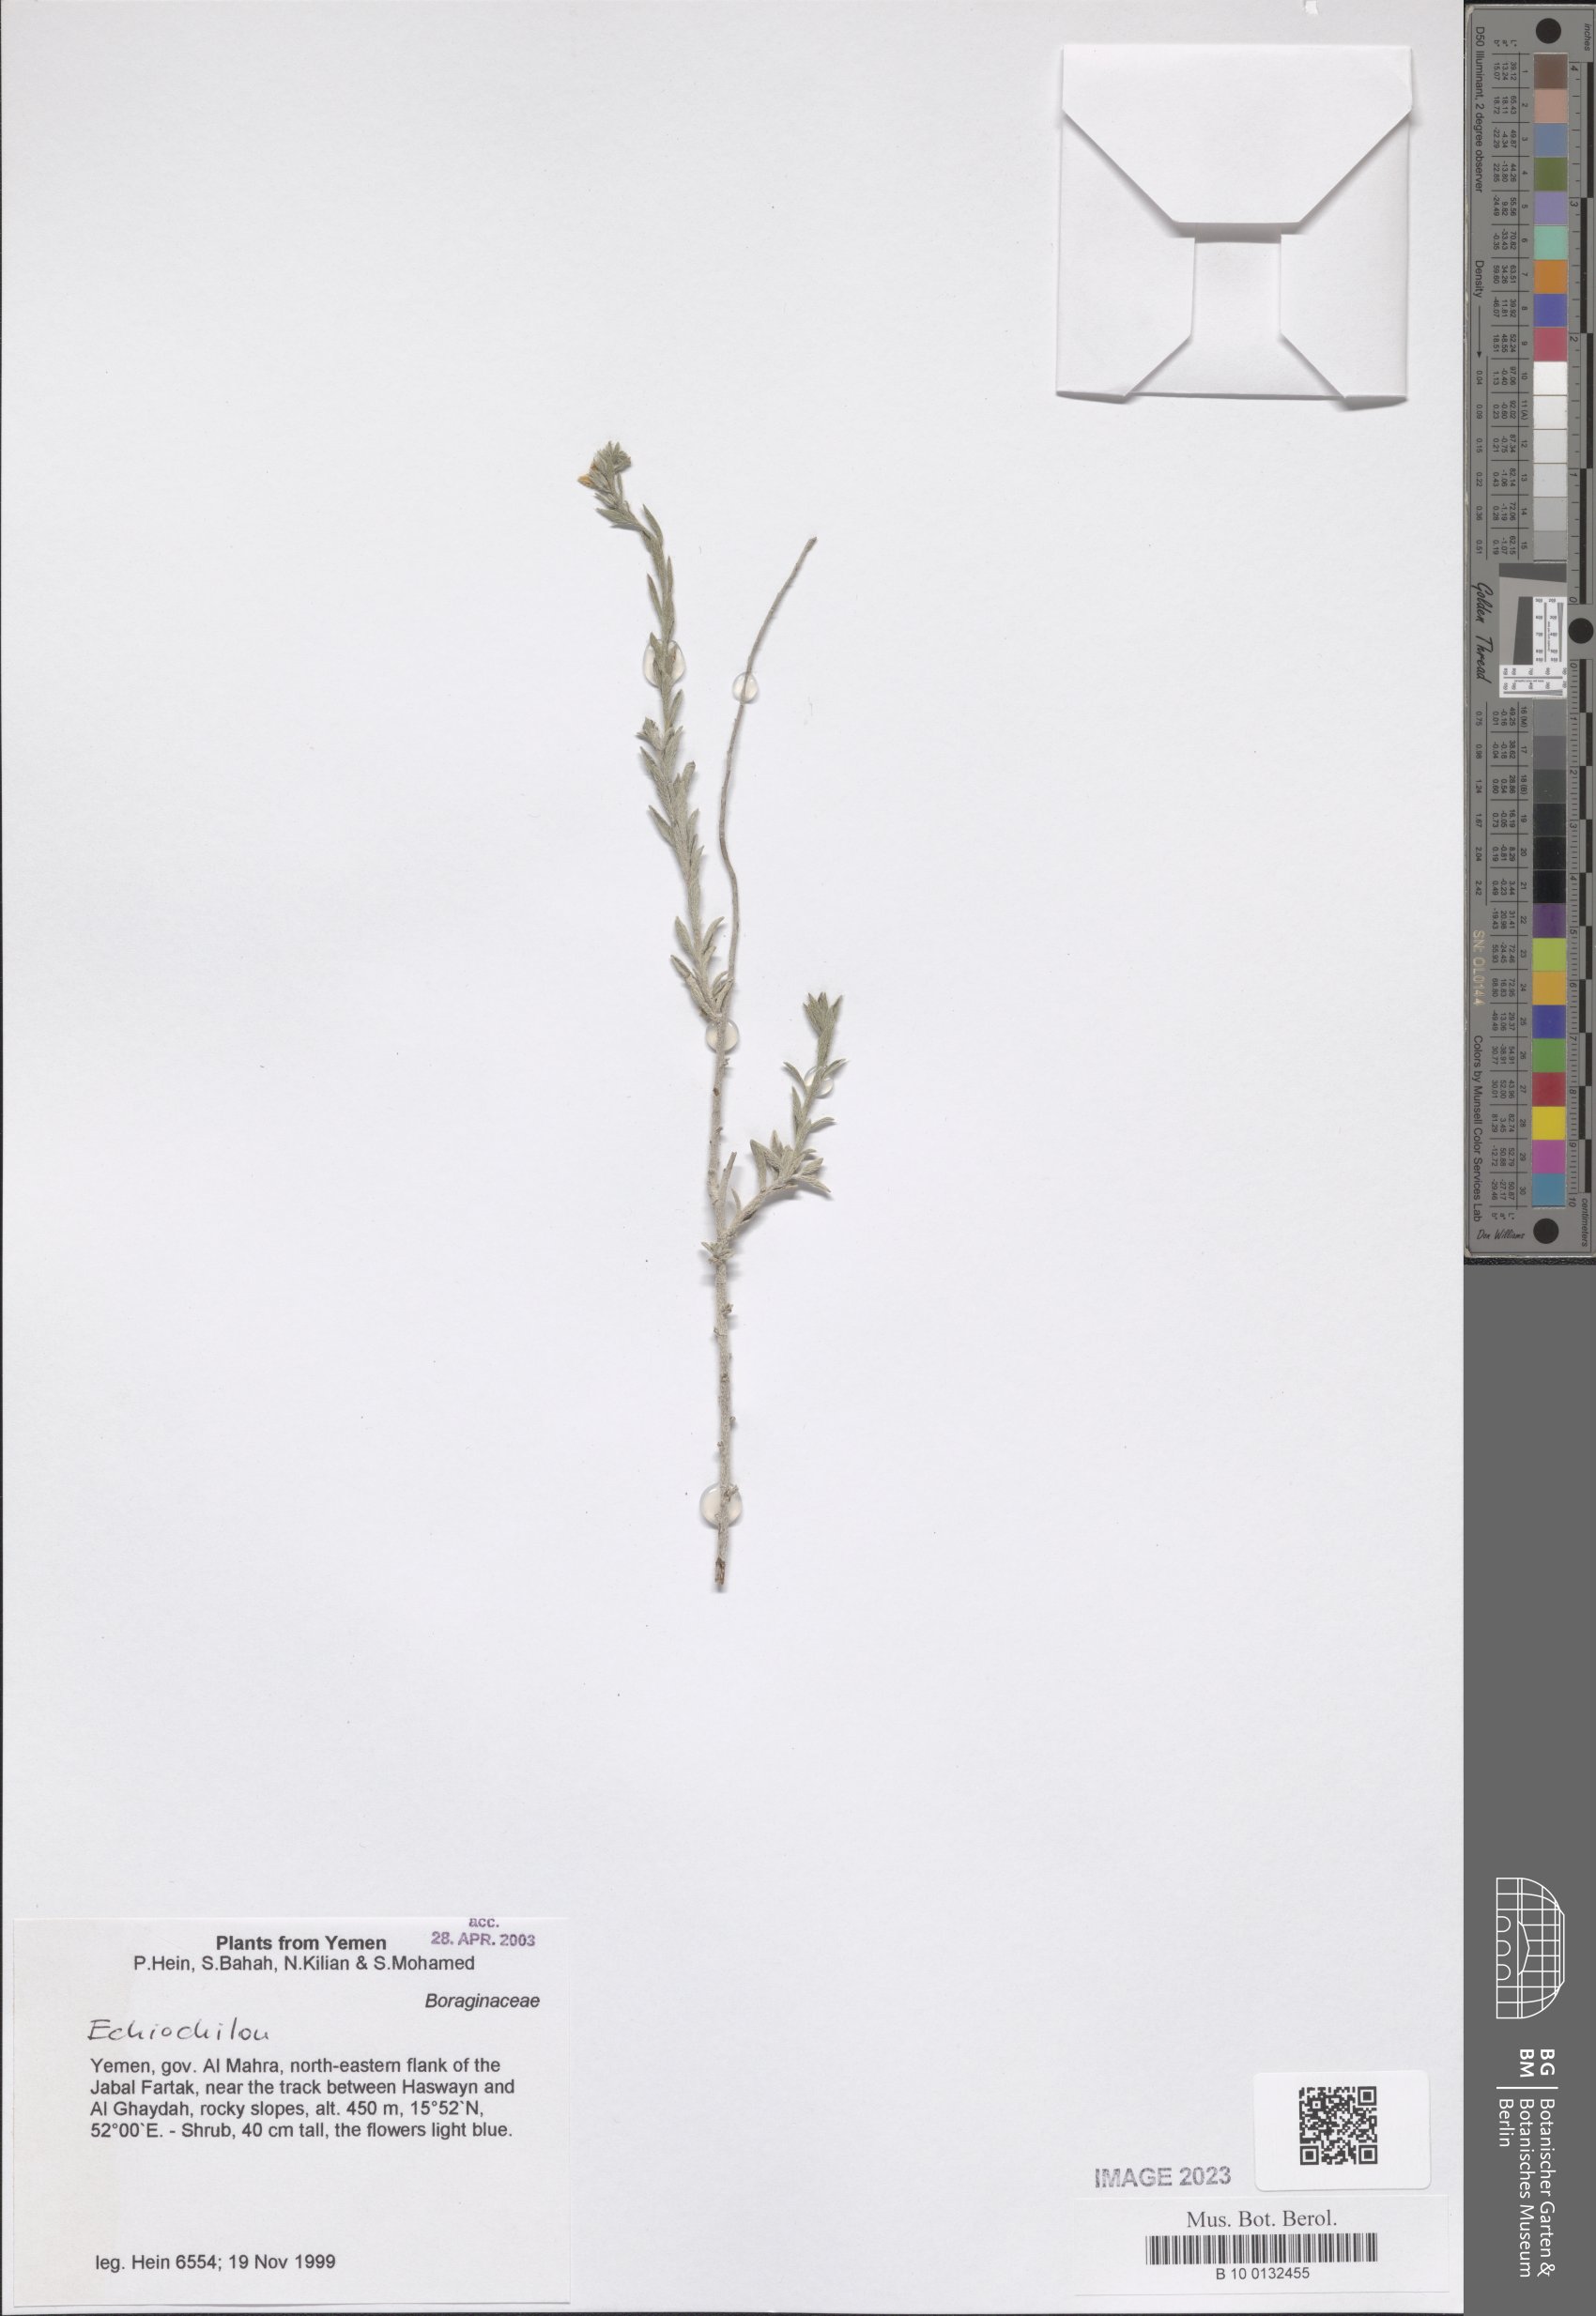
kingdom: Plantae
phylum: Tracheophyta
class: Magnoliopsida
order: Boraginales
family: Boraginaceae
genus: Echiochilon
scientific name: Echiochilon
